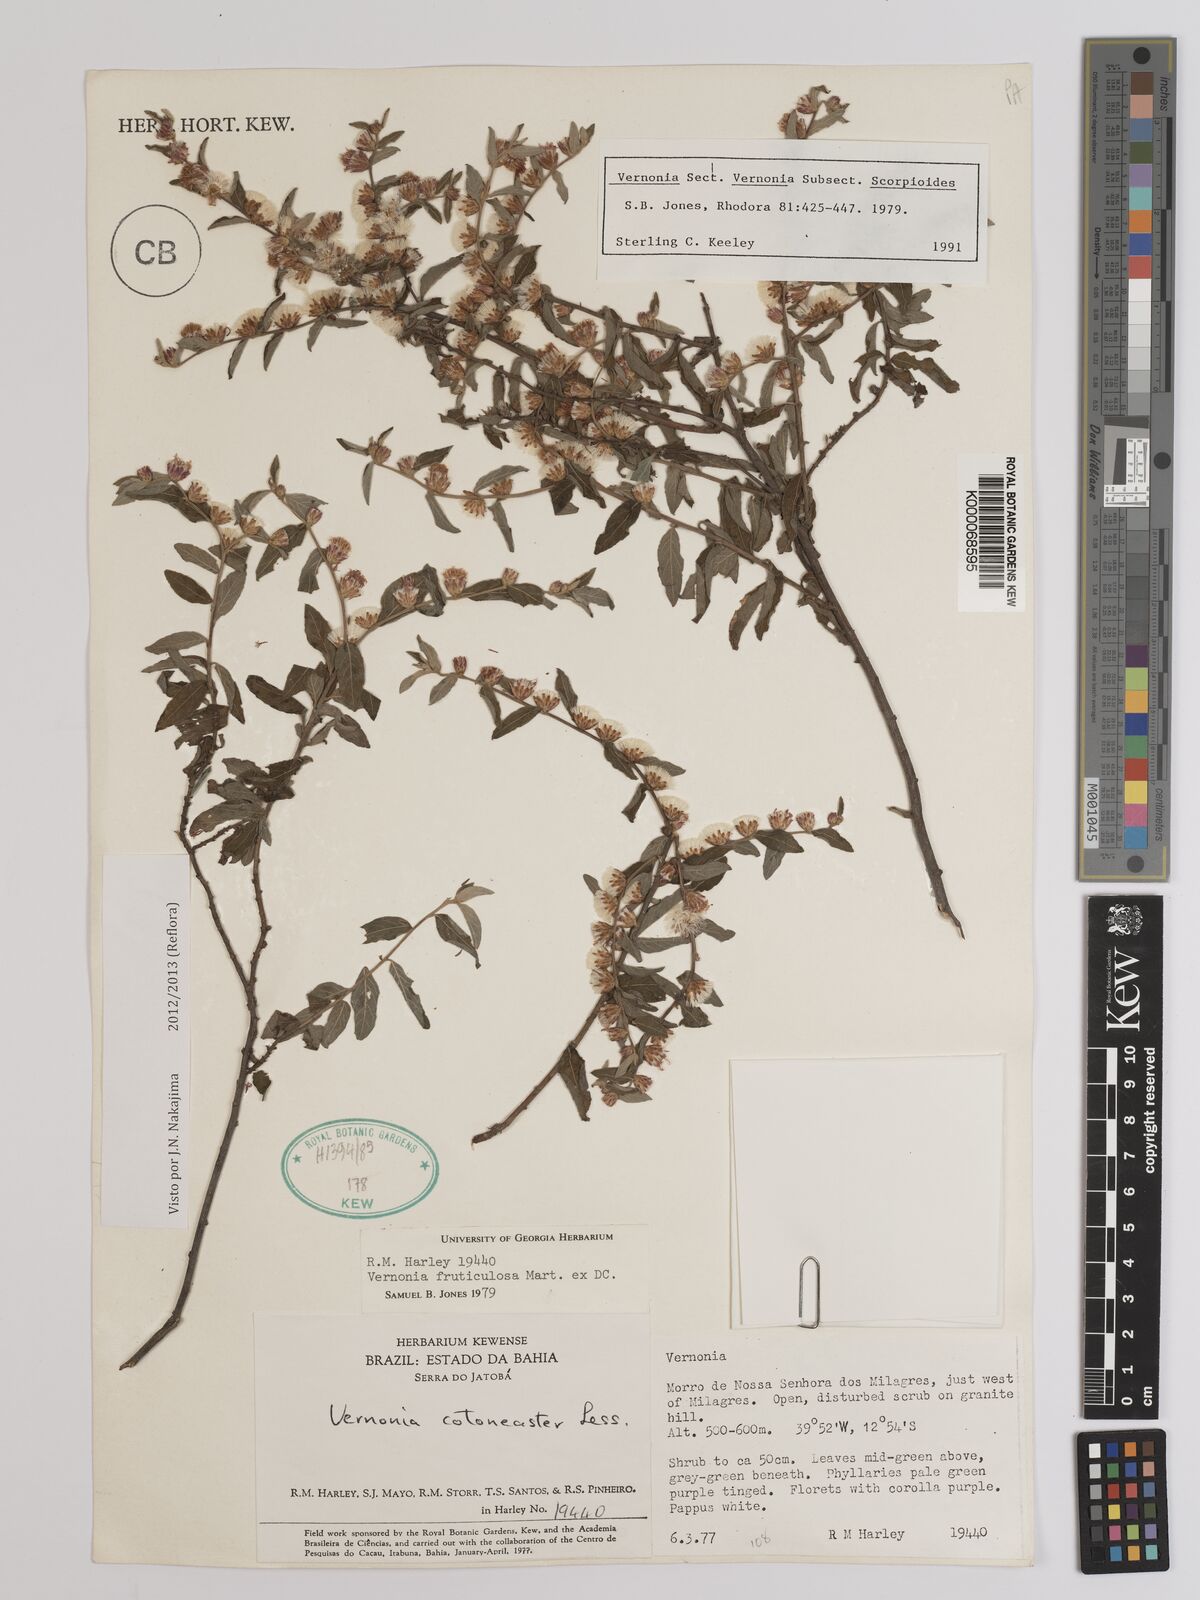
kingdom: Plantae
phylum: Tracheophyta
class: Magnoliopsida
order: Asterales
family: Asteraceae
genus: Lepidaploa
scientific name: Lepidaploa cotoneaster
